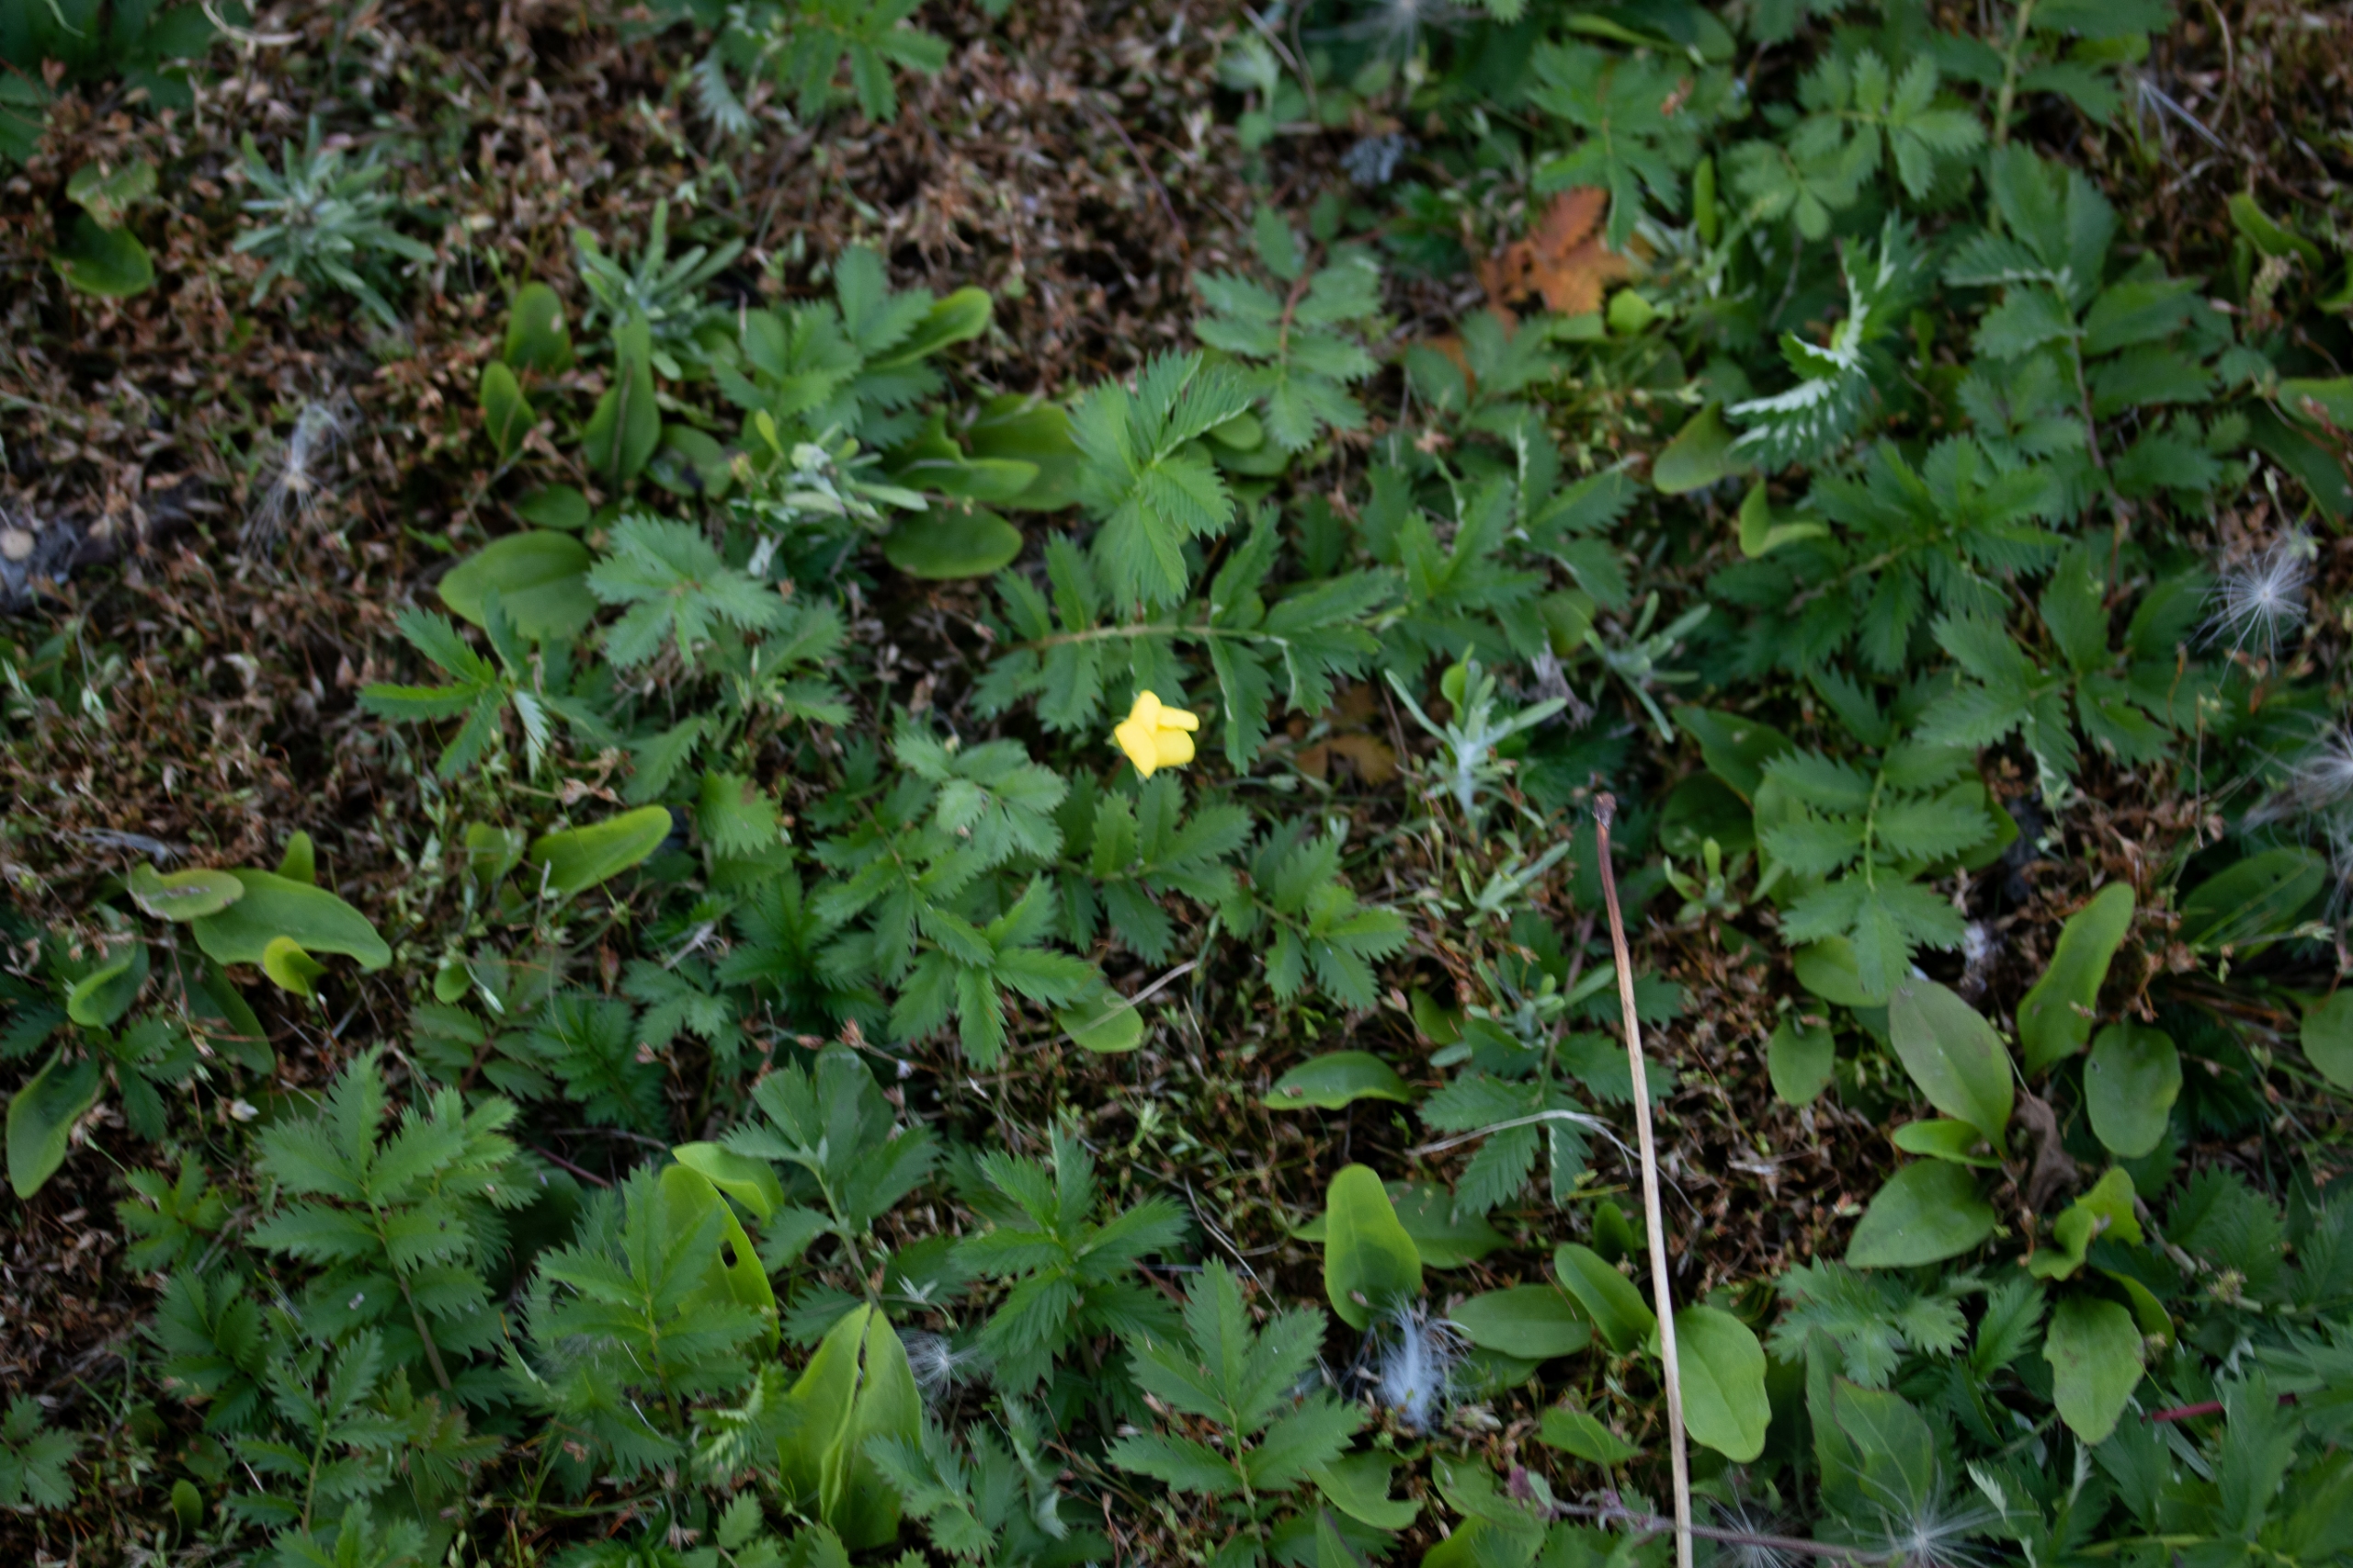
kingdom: Plantae
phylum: Tracheophyta
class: Magnoliopsida
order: Rosales
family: Rosaceae
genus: Argentina
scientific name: Argentina anserina
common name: Gåsepotentil
